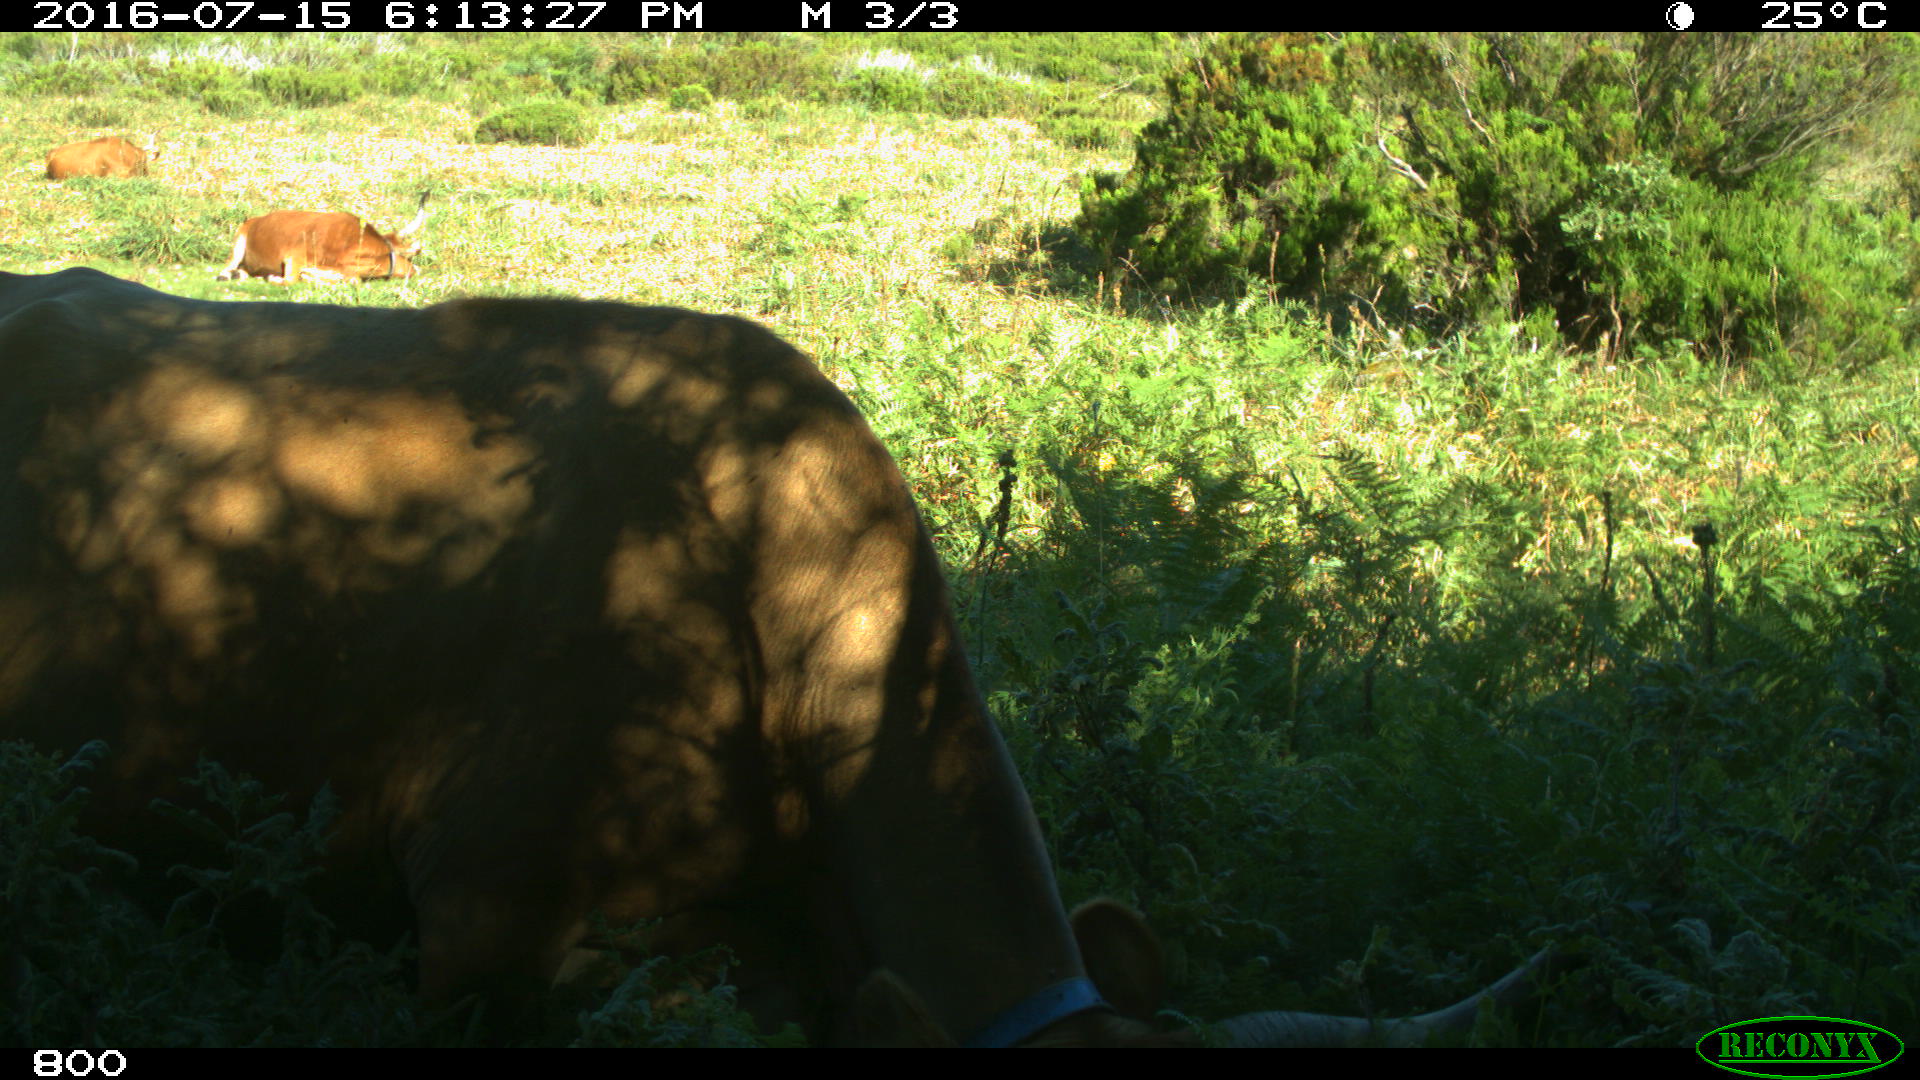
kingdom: Animalia
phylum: Chordata
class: Mammalia
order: Artiodactyla
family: Bovidae
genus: Bos
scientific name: Bos taurus
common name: Domesticated cattle
